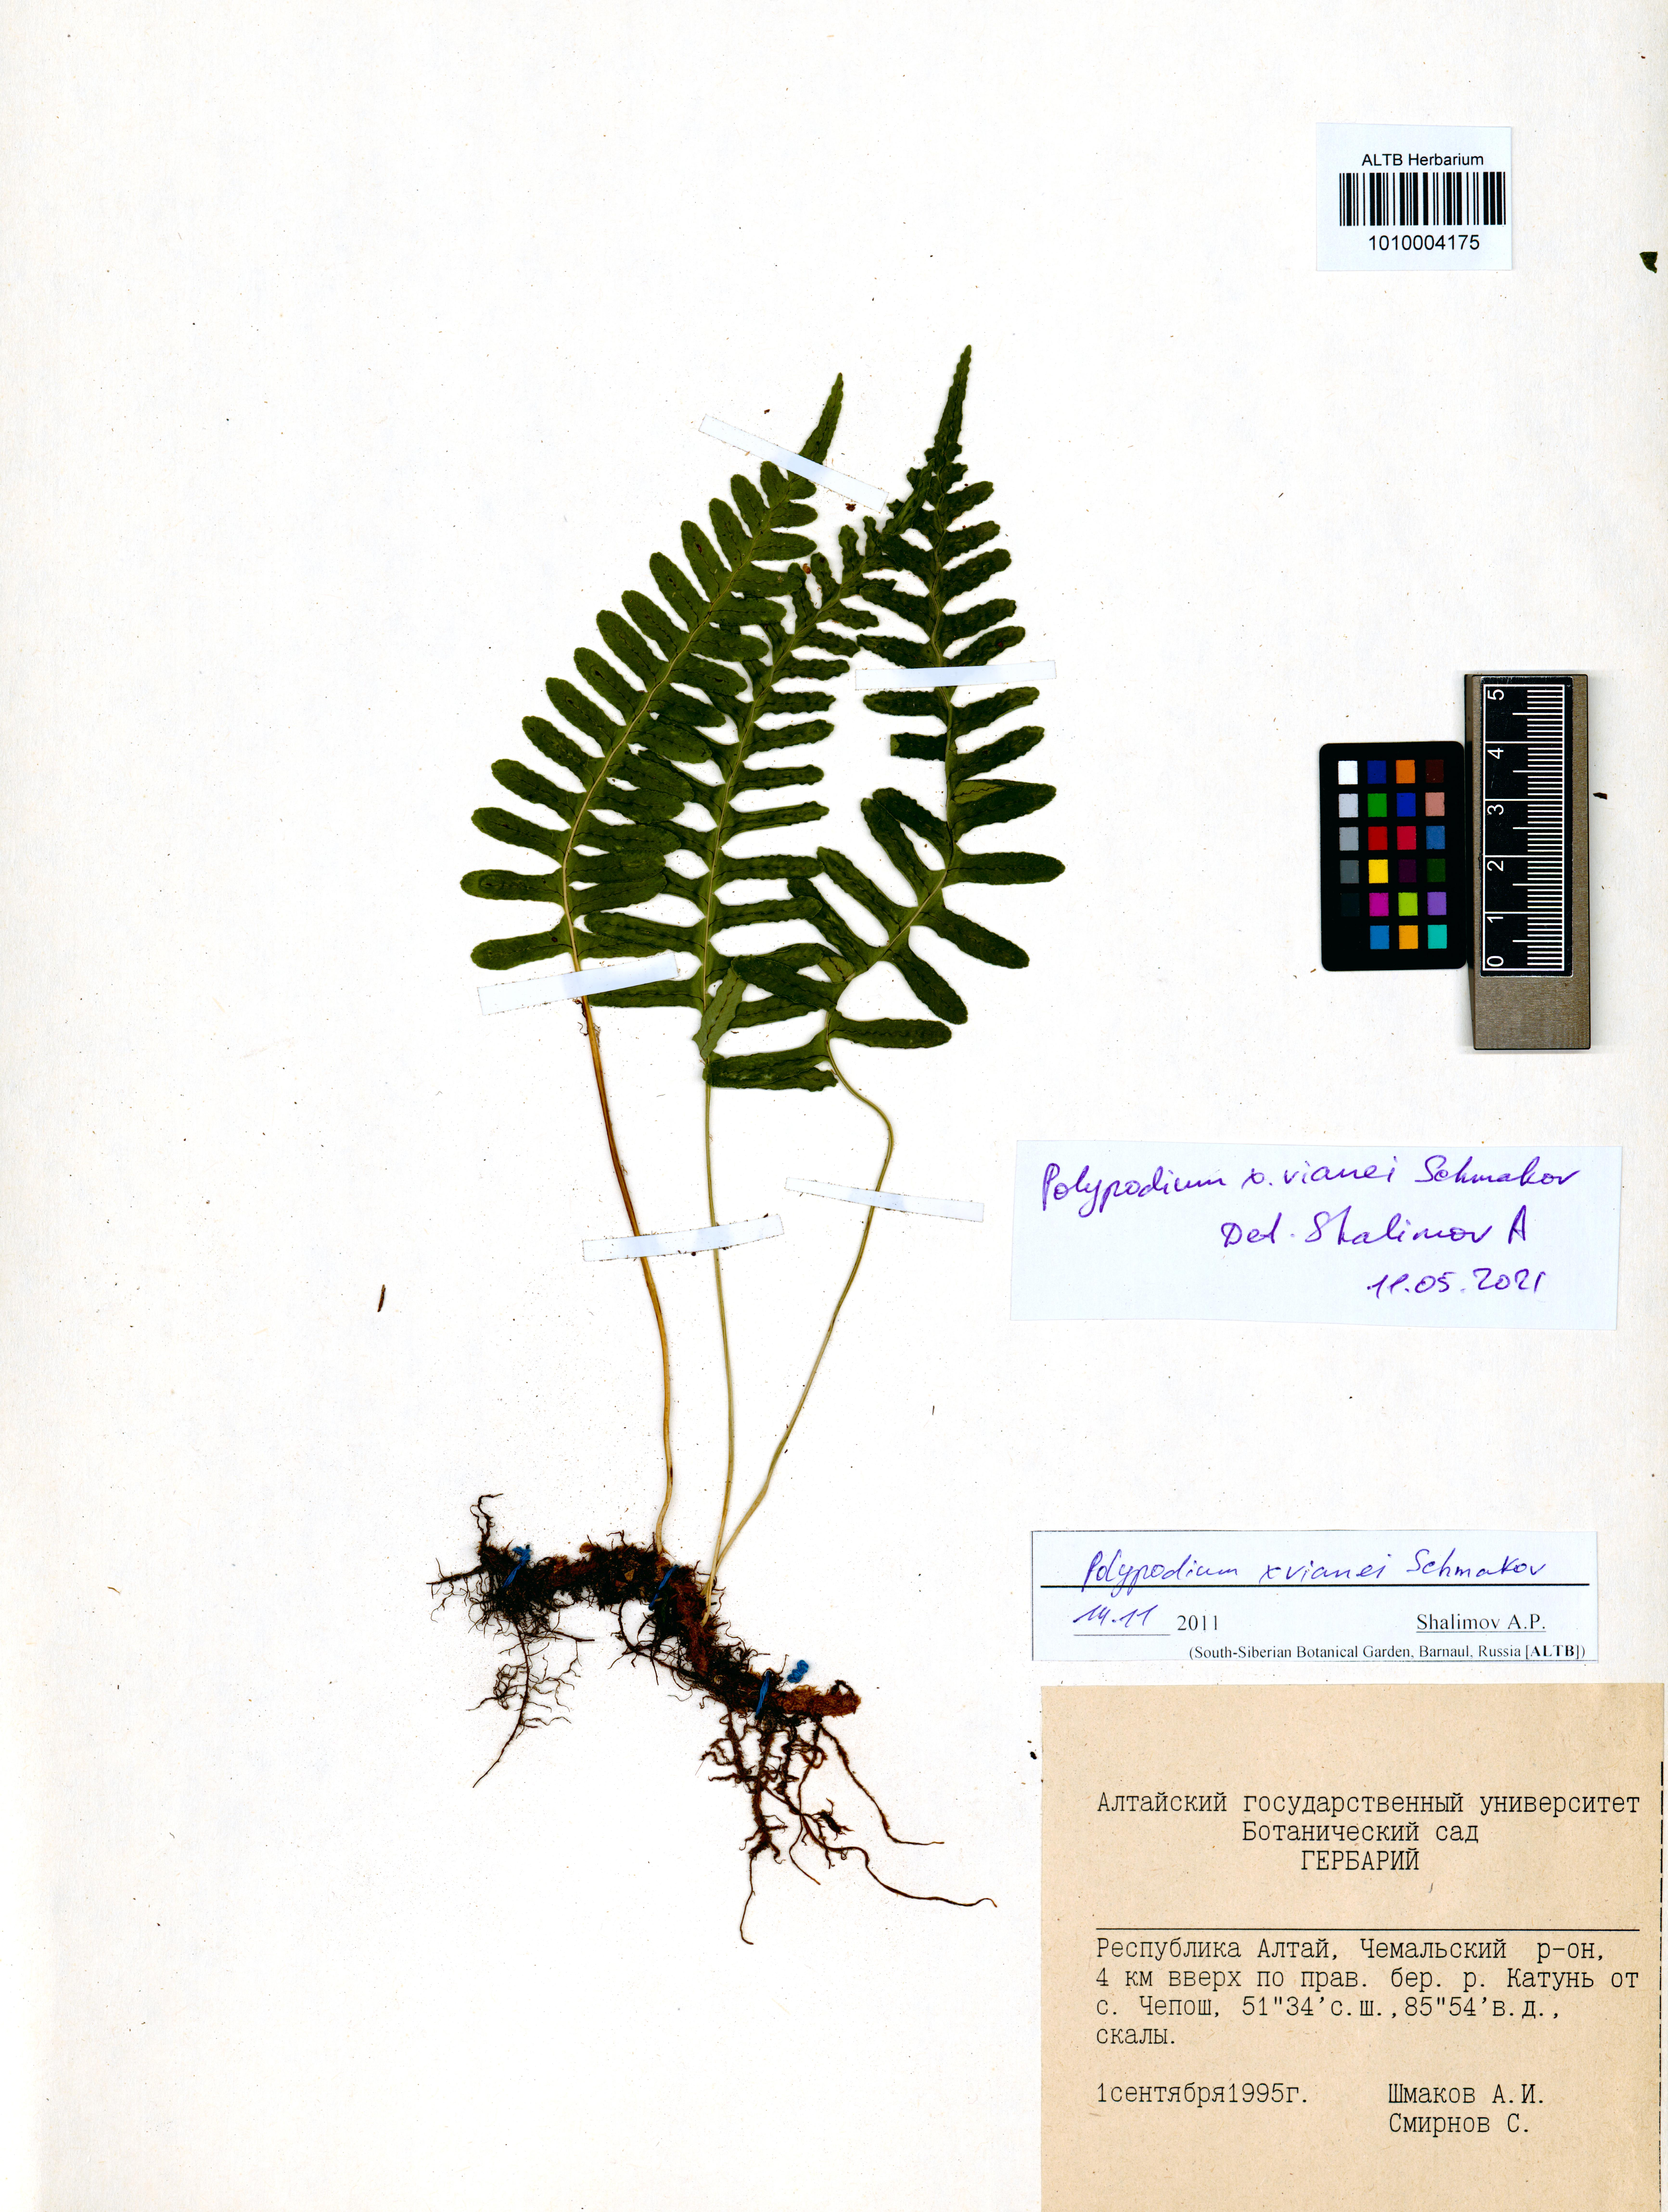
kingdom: Plantae
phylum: Tracheophyta
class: Polypodiopsida
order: Polypodiales
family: Polypodiaceae
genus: Polypodium
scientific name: Polypodium vianei
